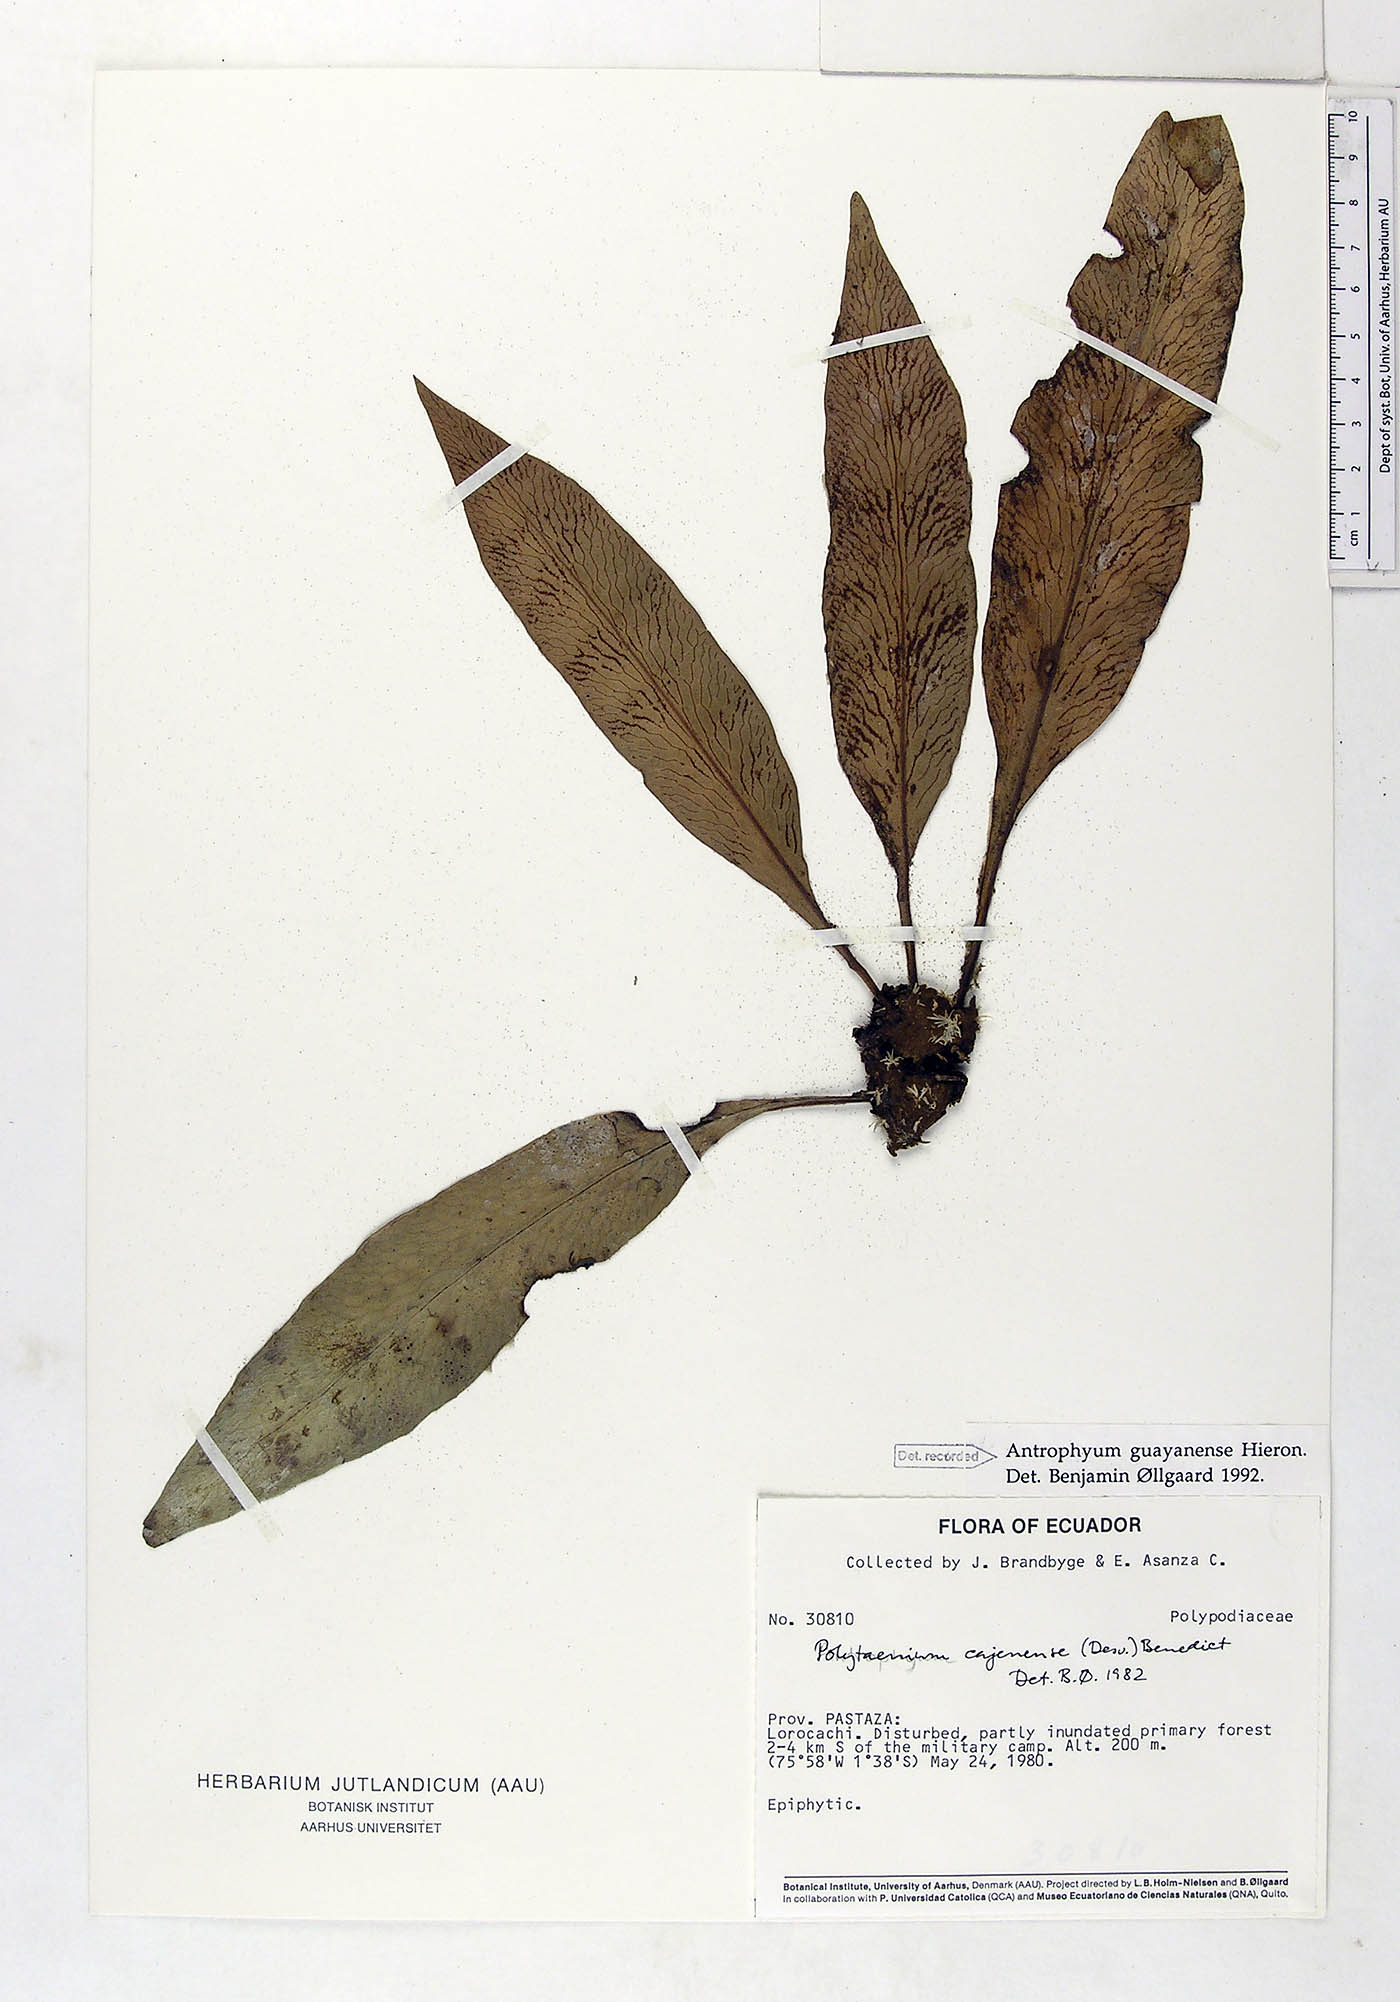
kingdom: Plantae
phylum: Tracheophyta
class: Polypodiopsida
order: Polypodiales
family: Pteridaceae
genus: Polytaenium
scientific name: Polytaenium guayanense
